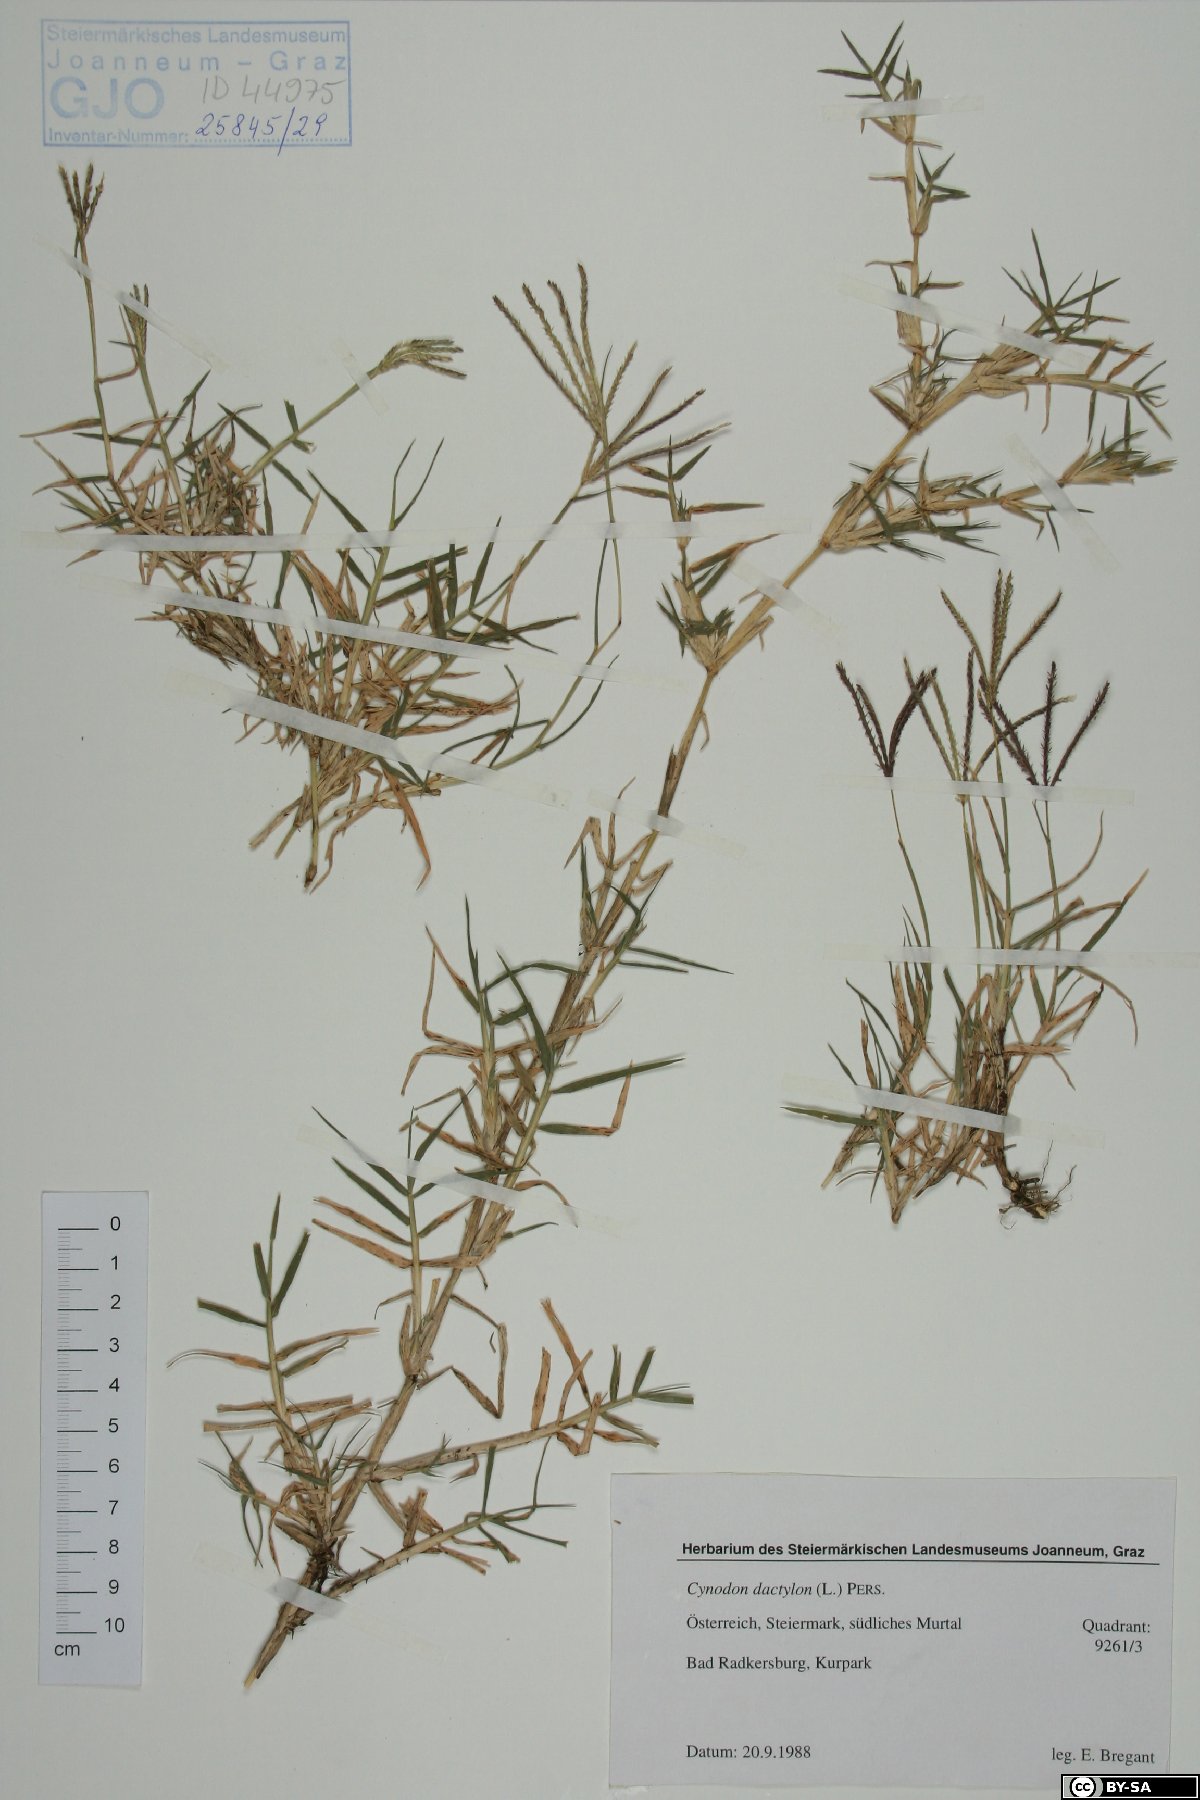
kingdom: Plantae
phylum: Tracheophyta
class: Liliopsida
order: Poales
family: Poaceae
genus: Cynodon
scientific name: Cynodon dactylon
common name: Bermuda grass
